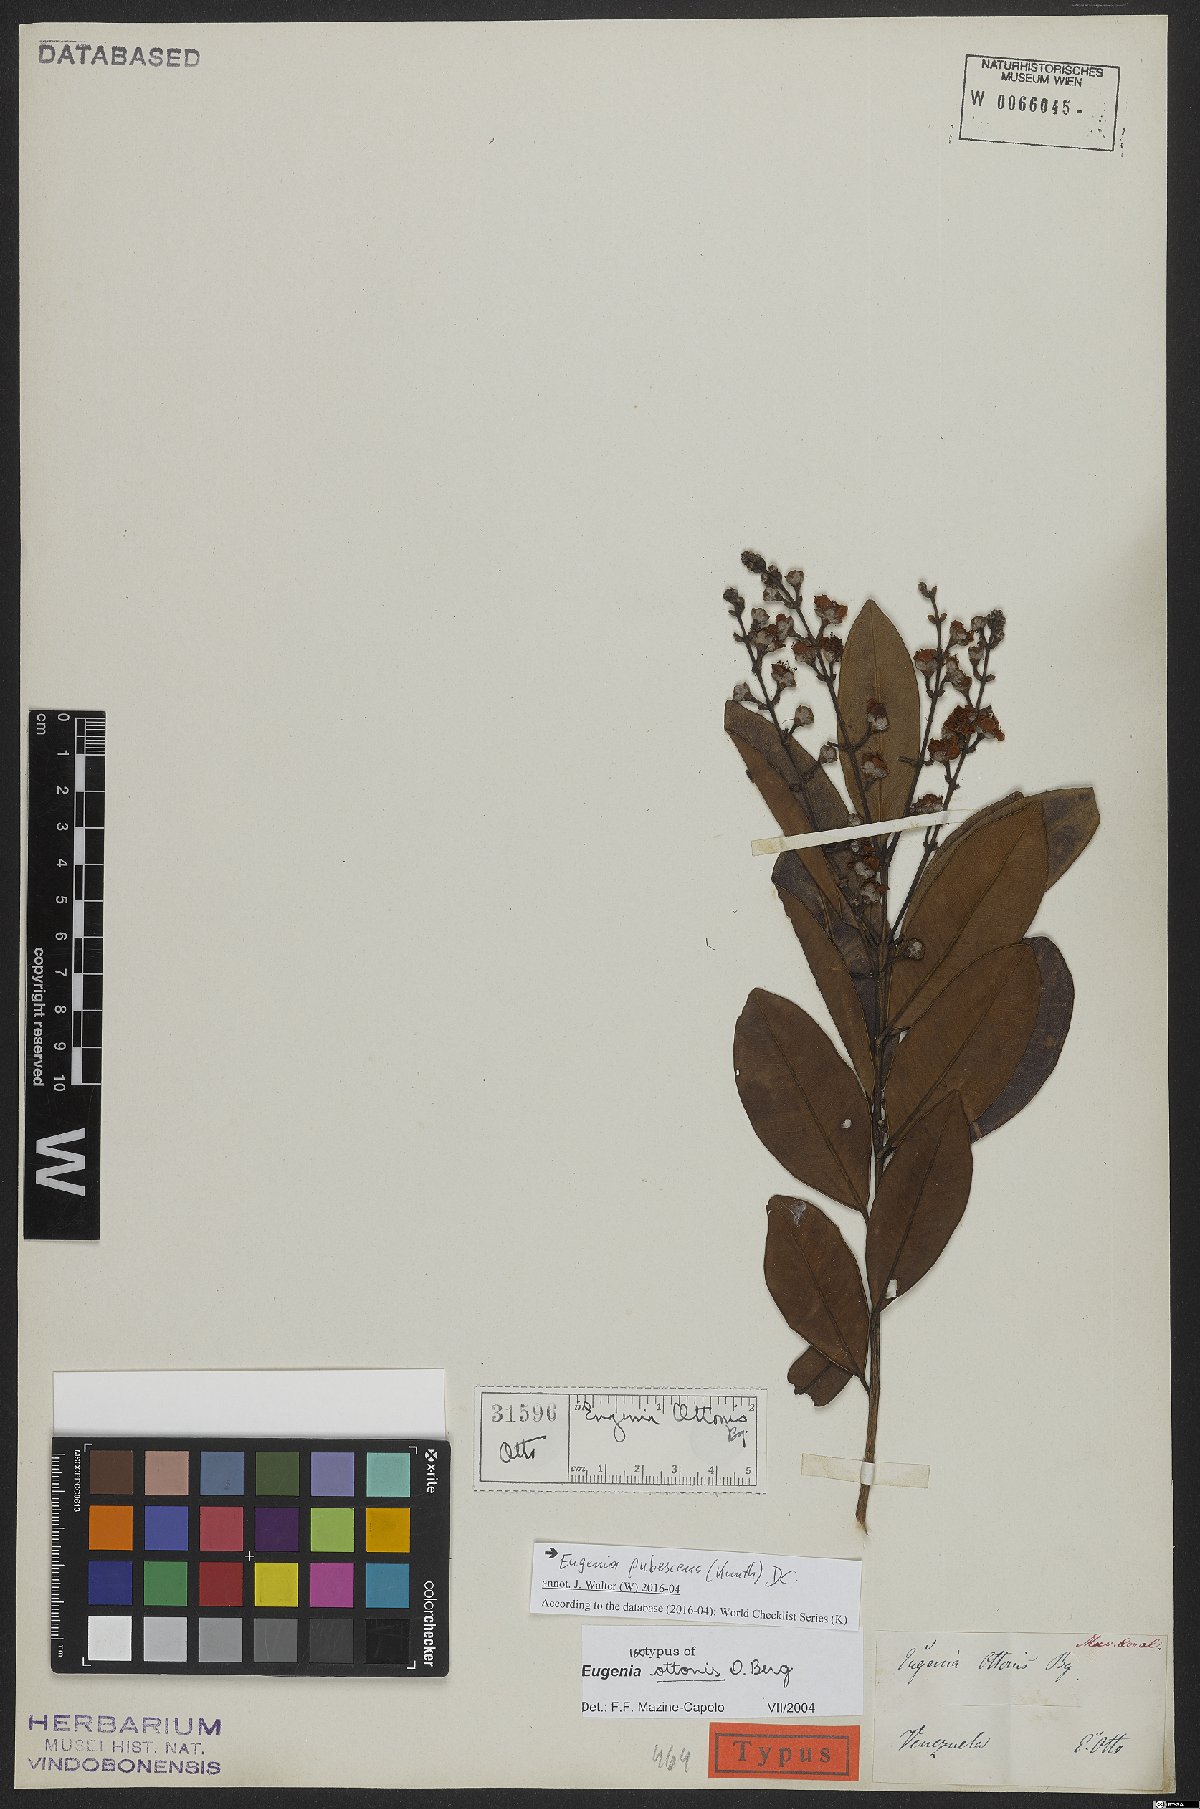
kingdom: Plantae
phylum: Tracheophyta
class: Magnoliopsida
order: Myrtales
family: Myrtaceae
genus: Eugenia
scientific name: Eugenia pubescens
